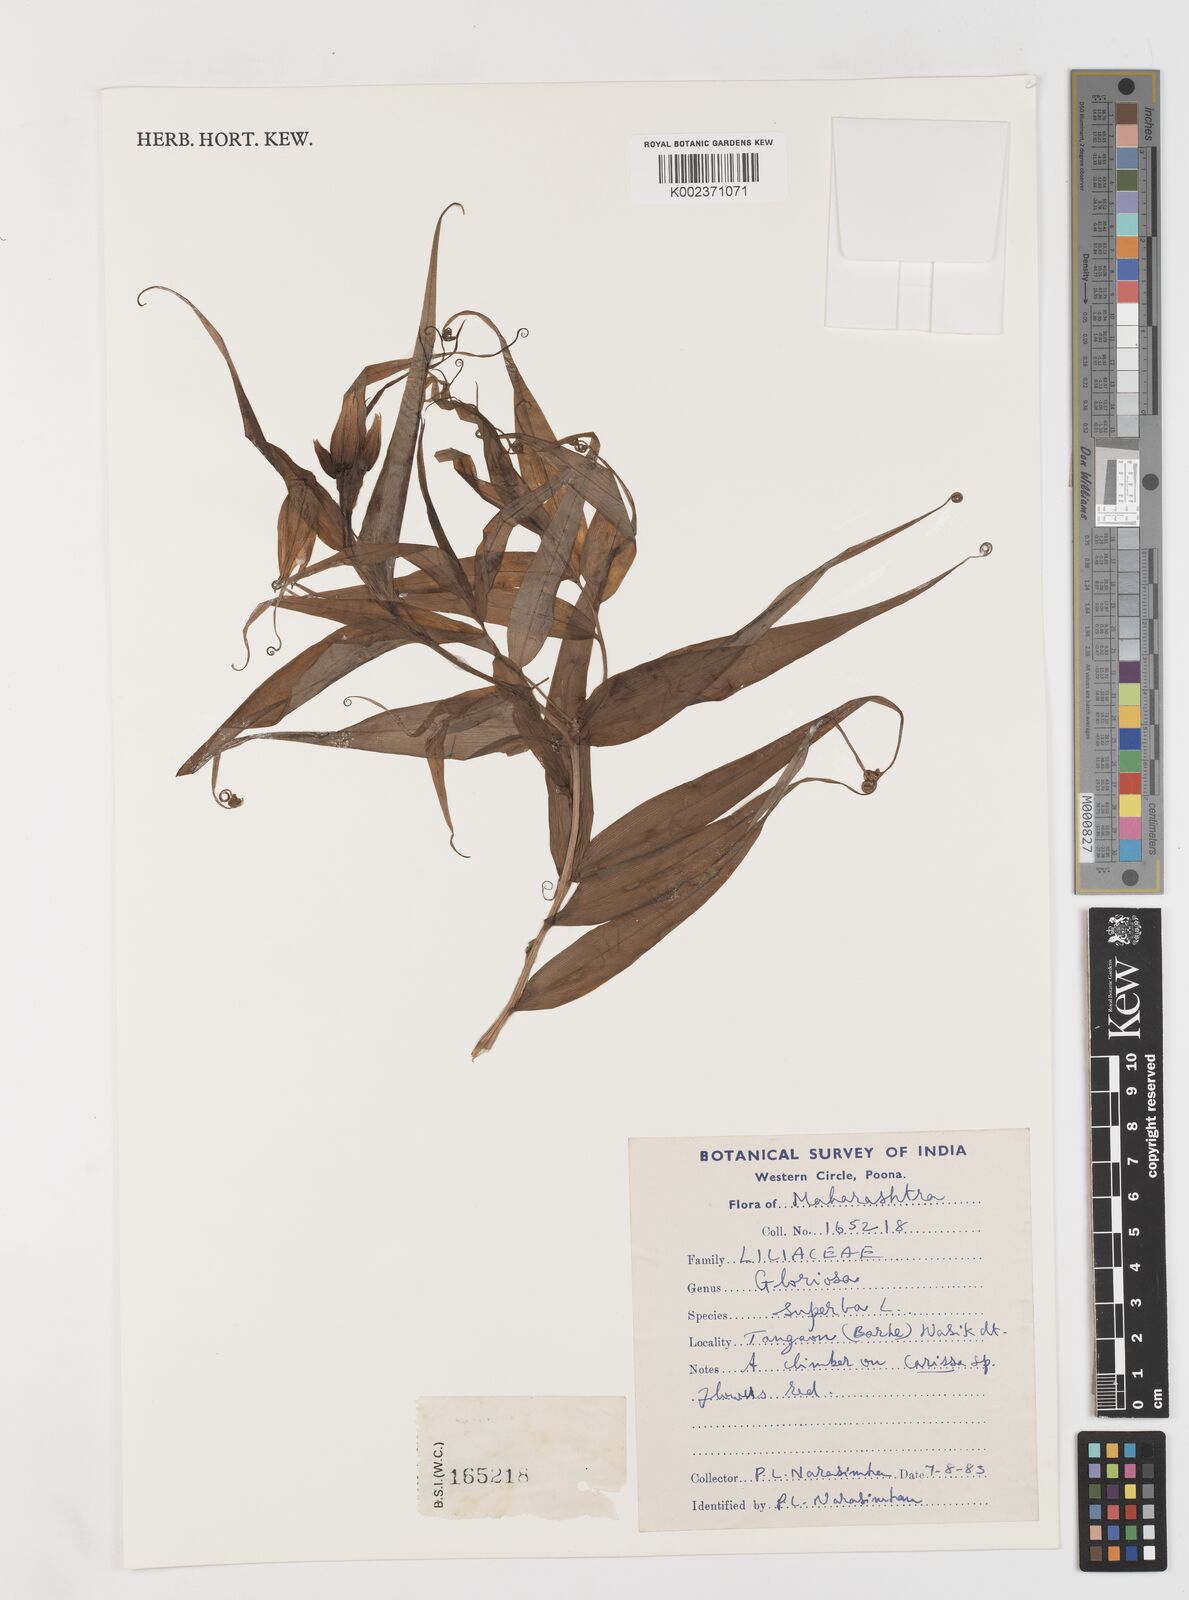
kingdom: Plantae
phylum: Tracheophyta
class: Liliopsida
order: Liliales
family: Colchicaceae
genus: Gloriosa
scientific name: Gloriosa superba
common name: Flame lily
